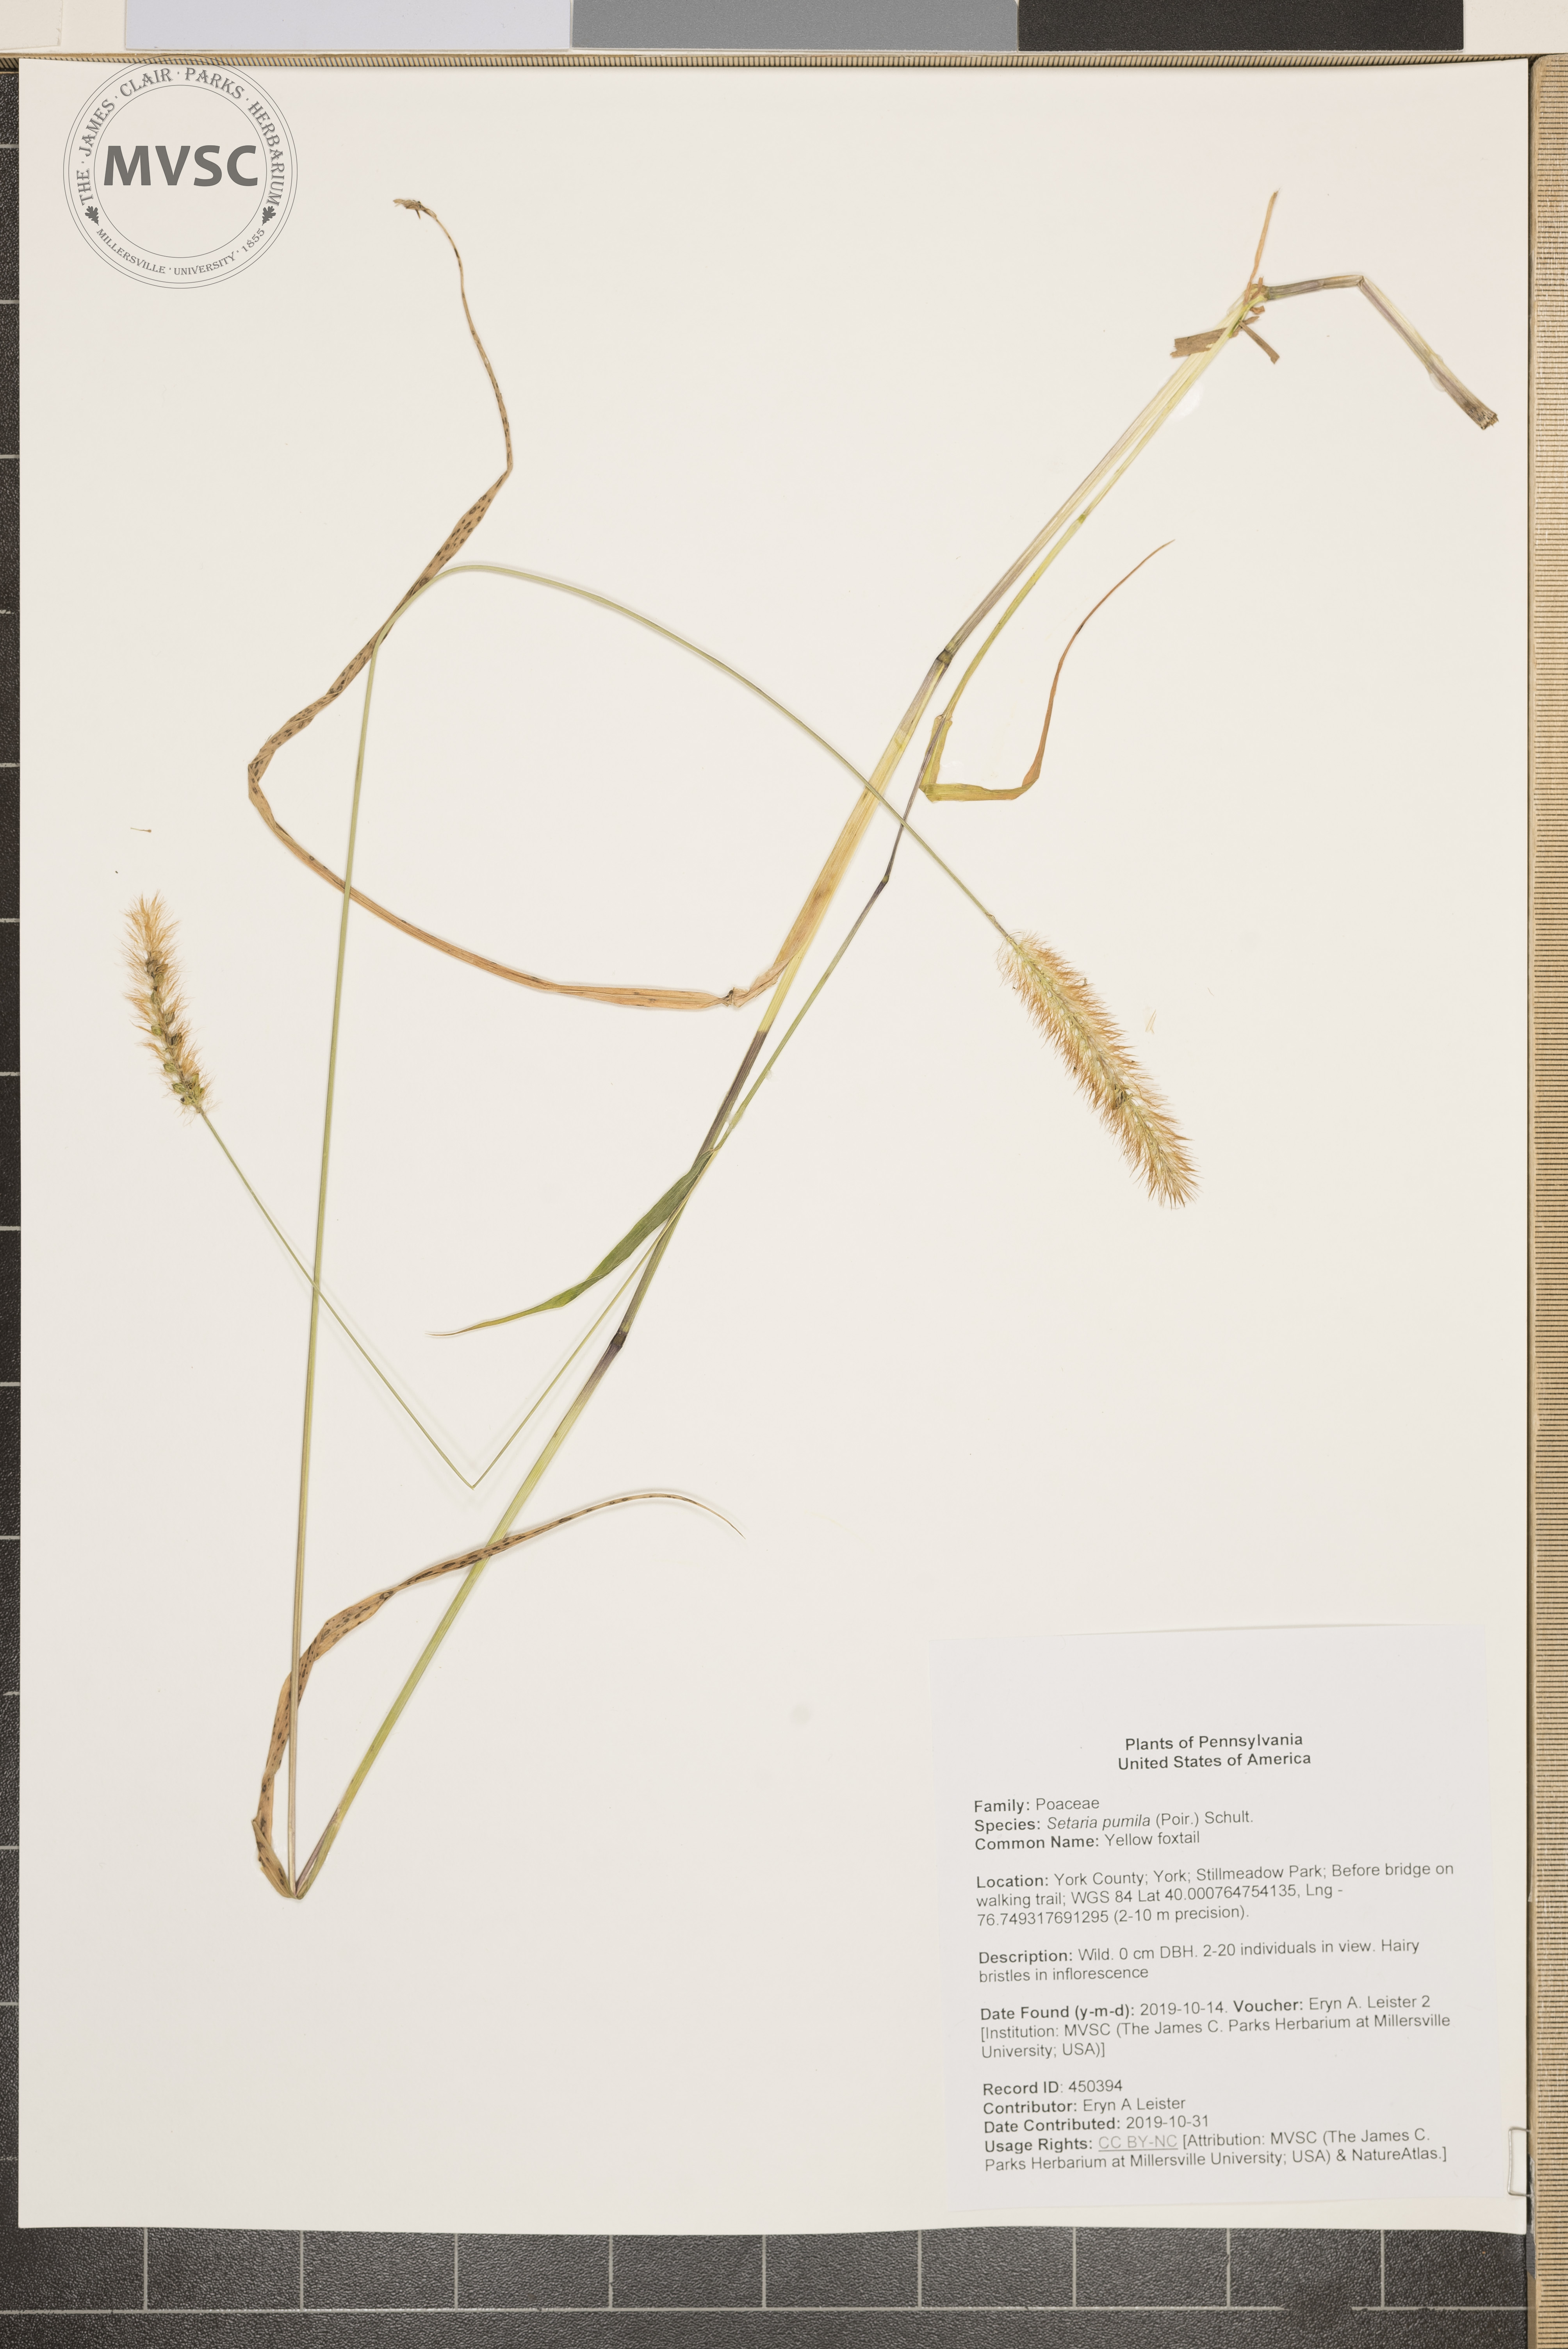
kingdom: Plantae
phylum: Tracheophyta
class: Liliopsida
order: Poales
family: Poaceae
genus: Setaria
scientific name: Setaria pumila
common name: Yellow foxtail
